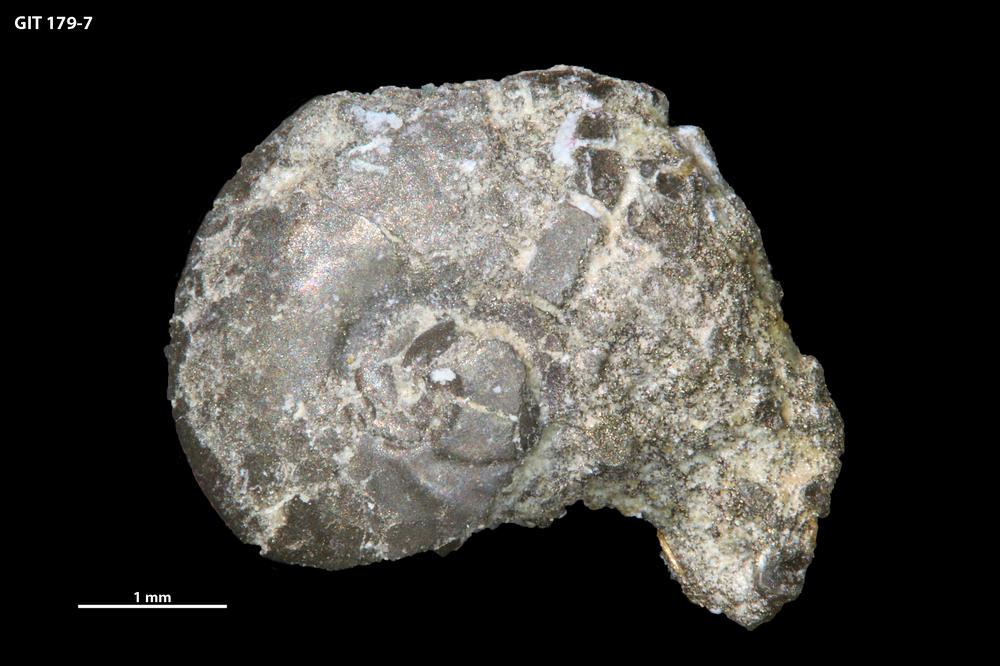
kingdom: Animalia
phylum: Mollusca
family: Aldanellidae
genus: Aldanella
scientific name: Aldanella attleborensis
